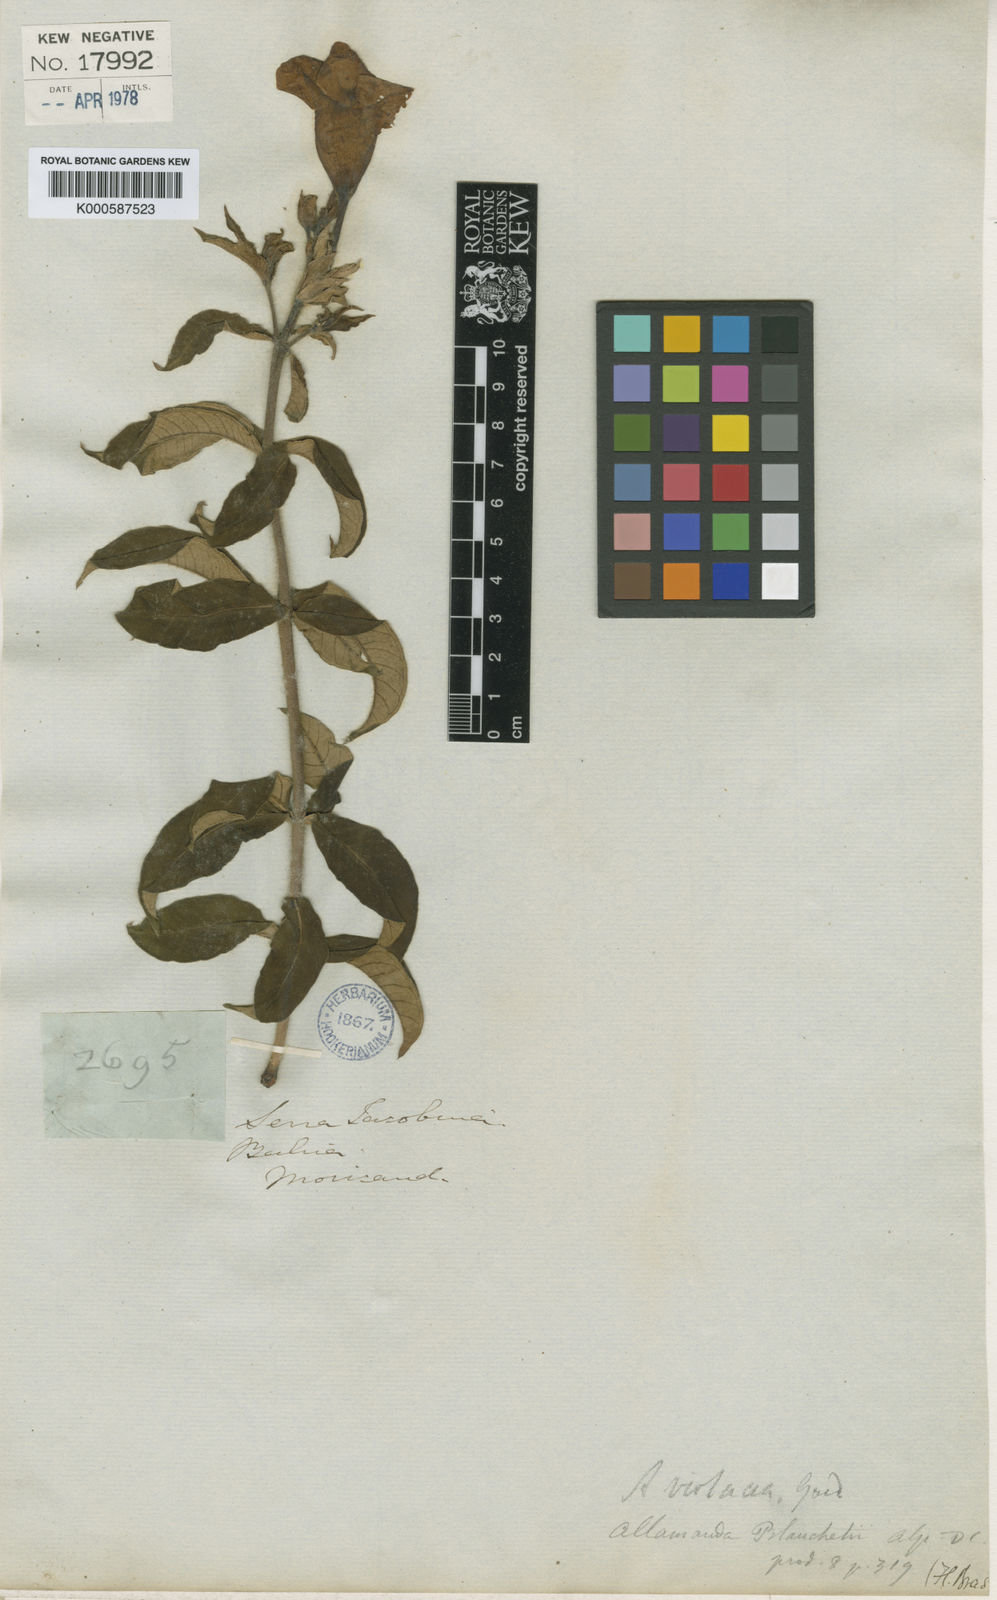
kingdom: Plantae
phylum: Tracheophyta
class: Magnoliopsida
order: Gentianales
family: Apocynaceae
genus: Allamanda
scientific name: Allamanda blanchetii
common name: Purple allamanda
